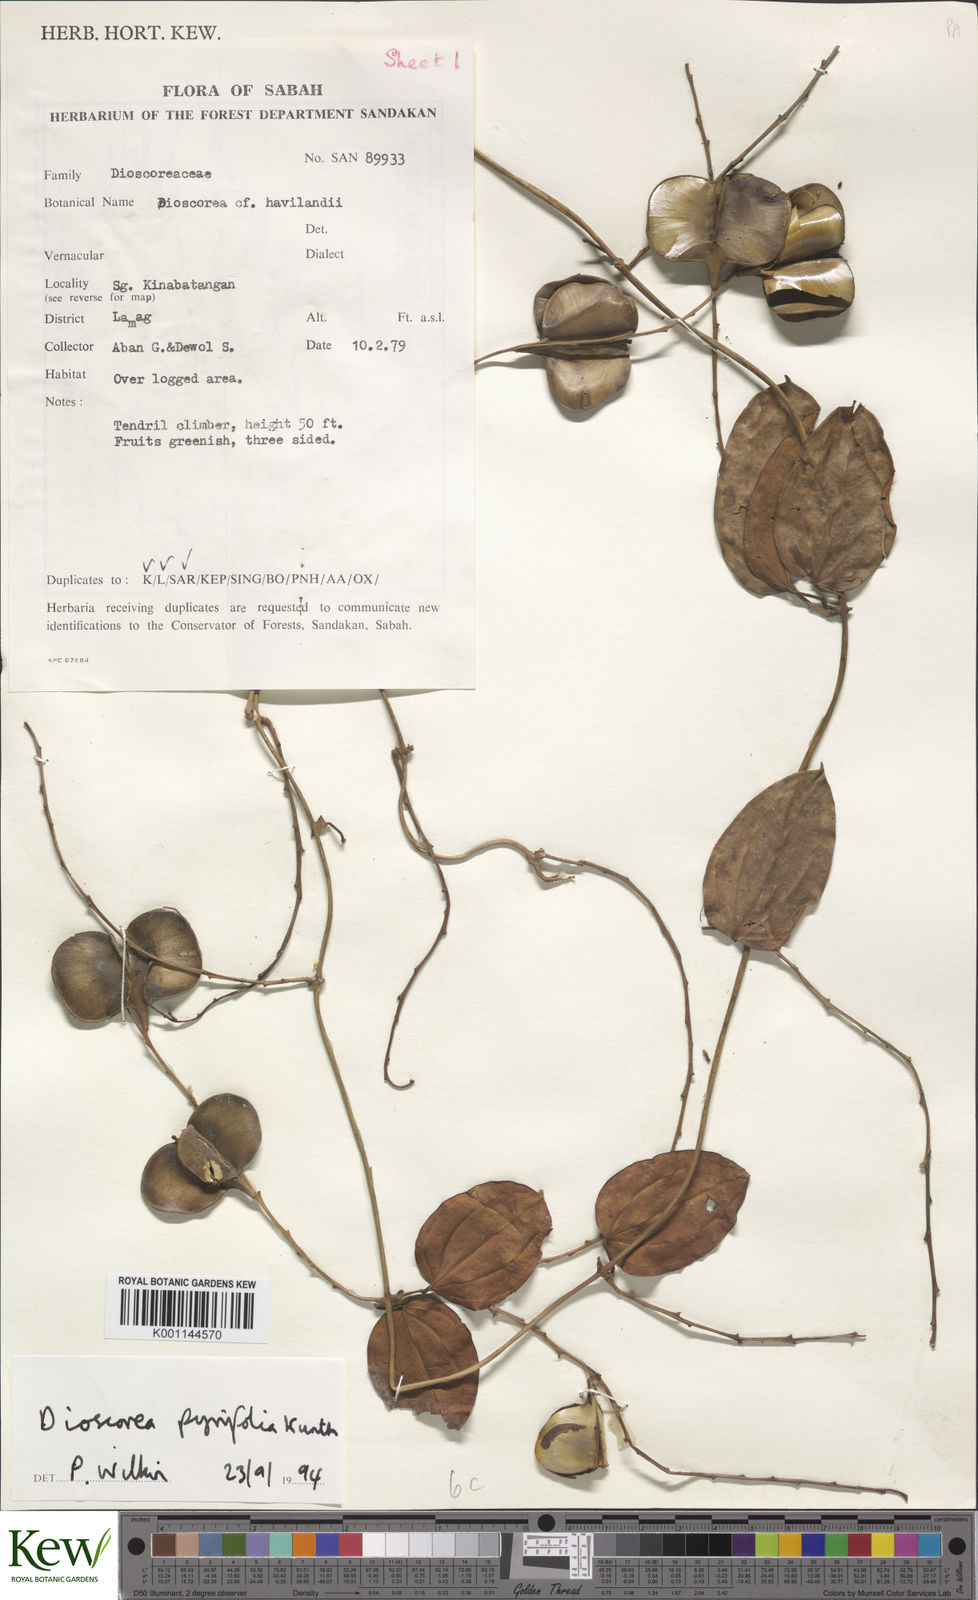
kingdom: Plantae
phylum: Tracheophyta
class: Liliopsida
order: Dioscoreales
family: Dioscoreaceae
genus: Dioscorea
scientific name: Dioscorea pyrifolia
